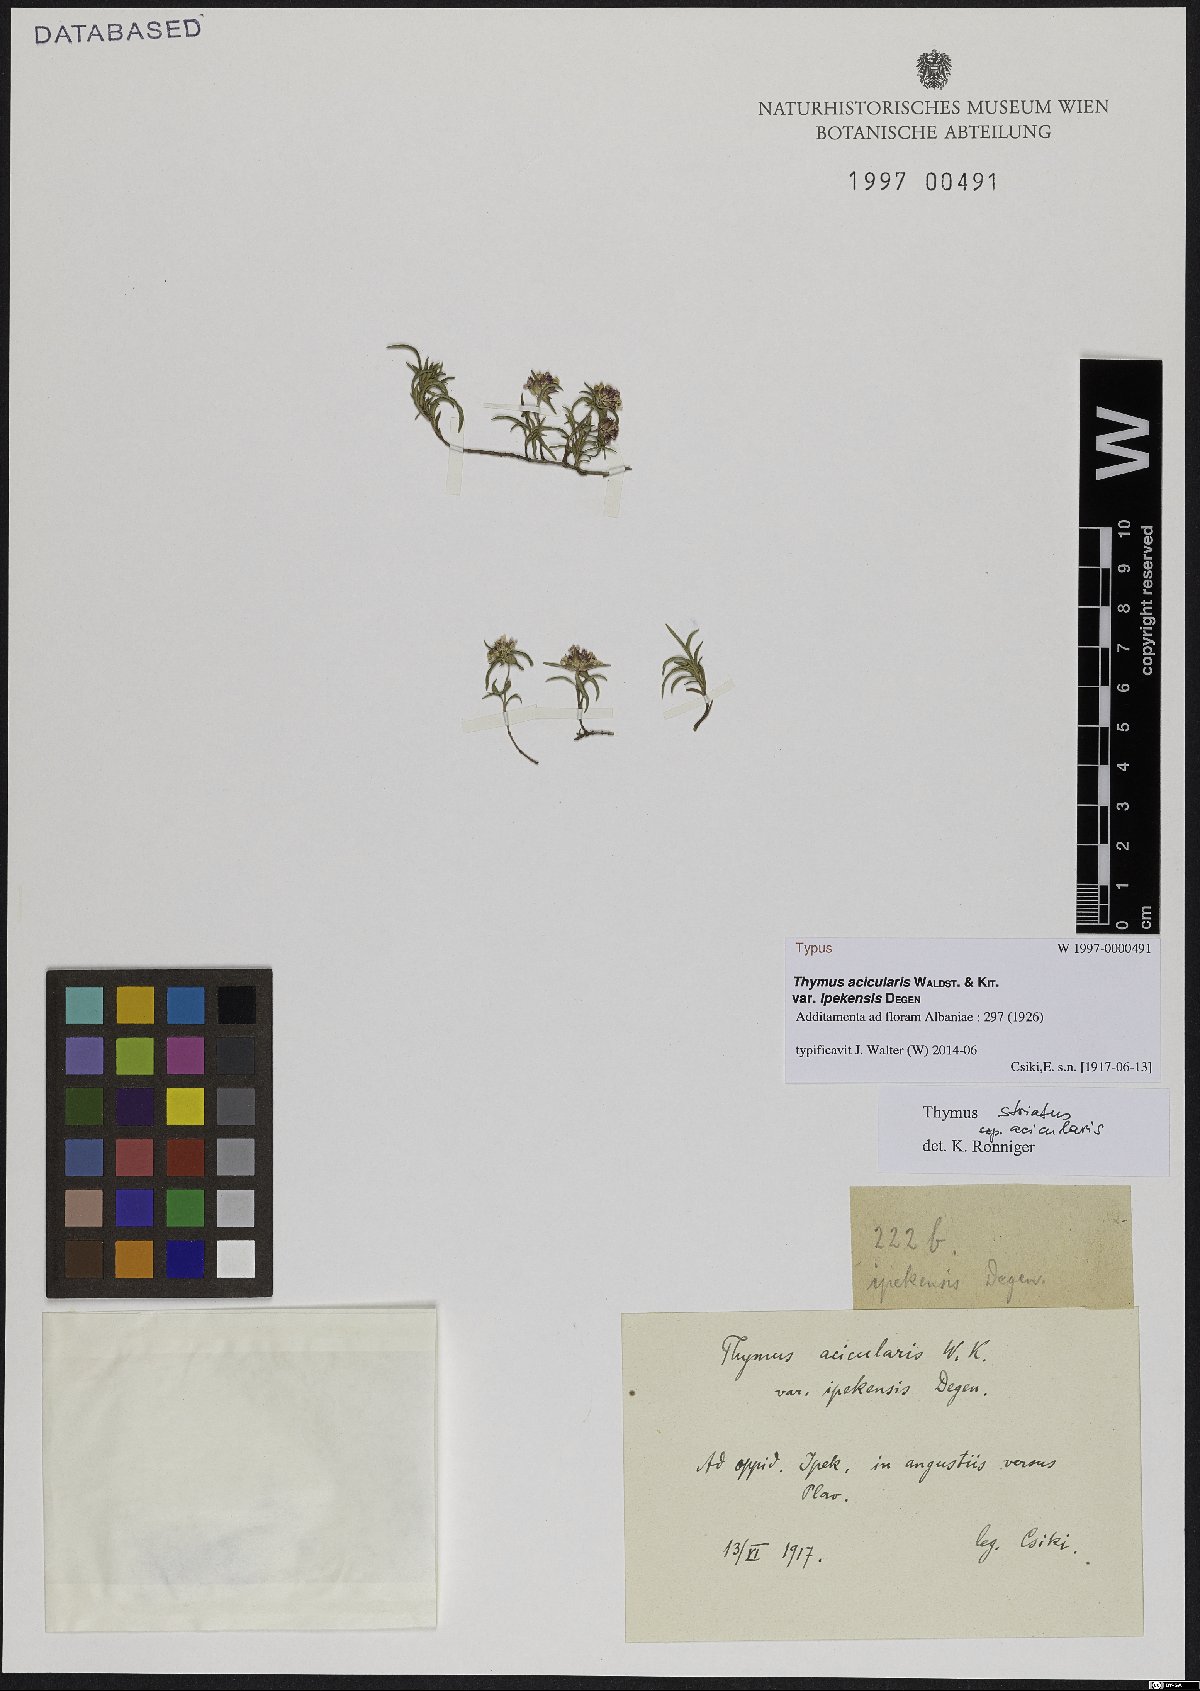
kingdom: Plantae
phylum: Tracheophyta
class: Magnoliopsida
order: Lamiales
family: Lamiaceae
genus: Thymus
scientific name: Thymus
